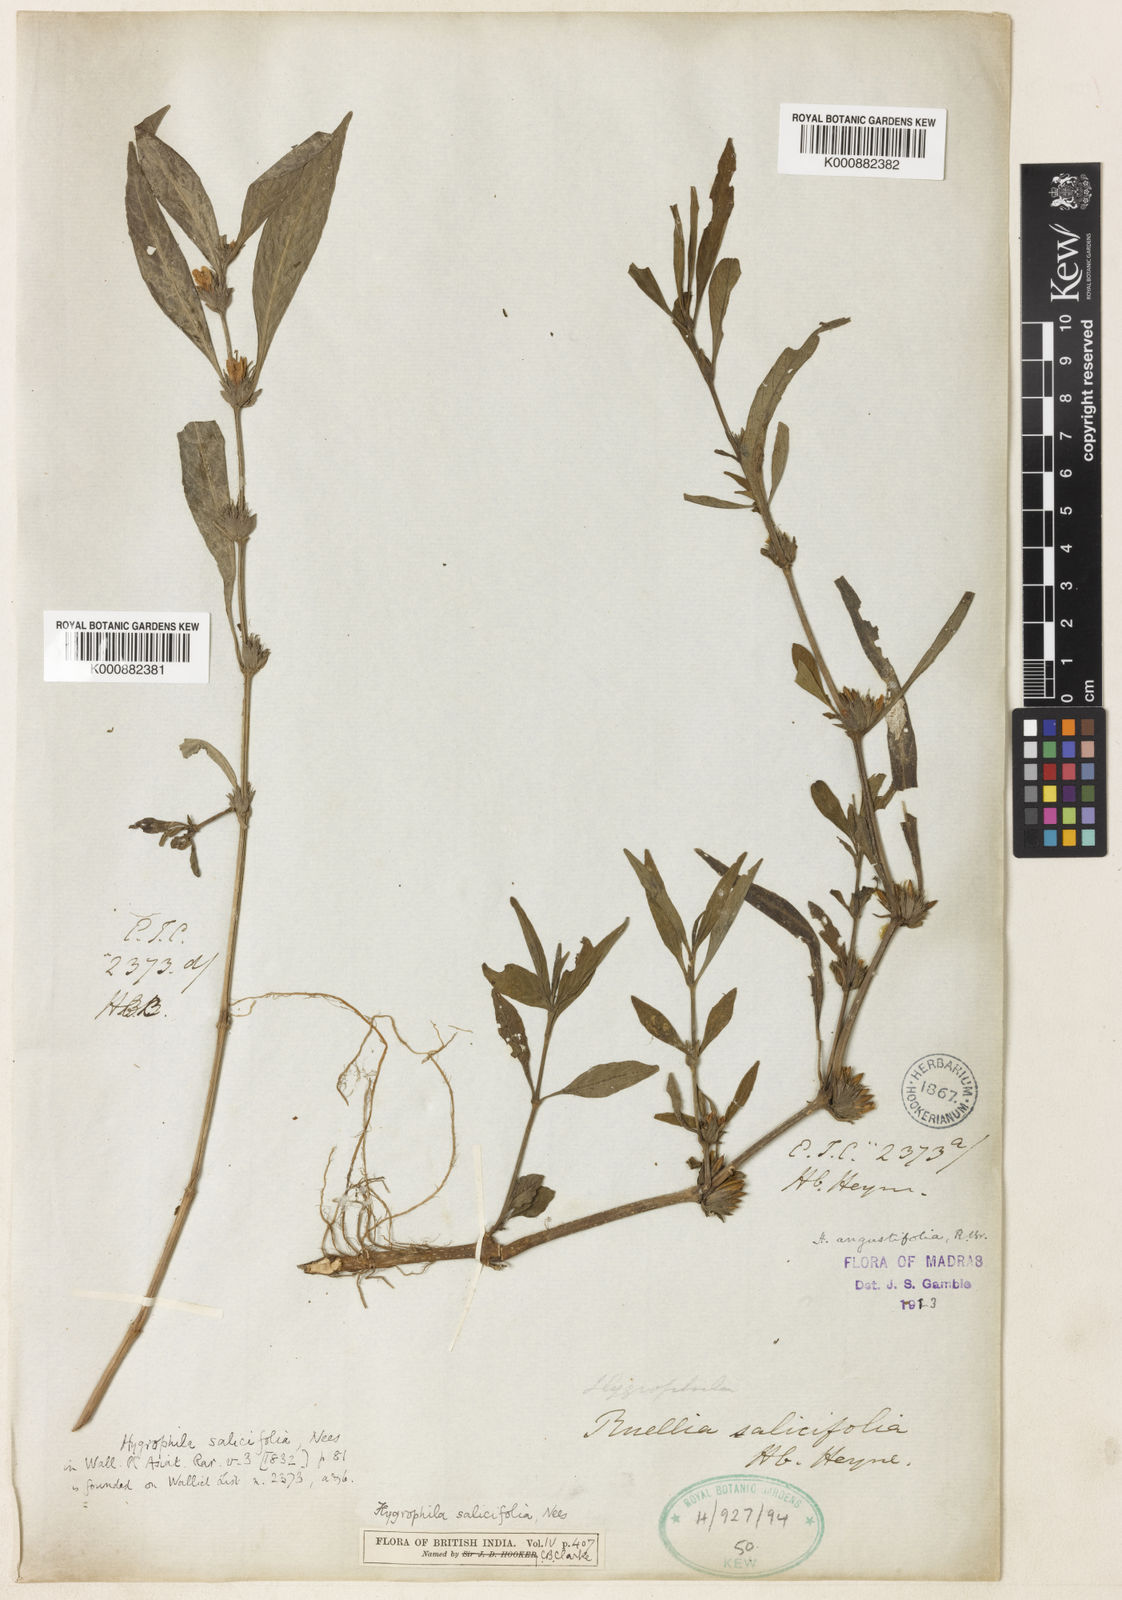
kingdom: Plantae
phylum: Tracheophyta
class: Magnoliopsida
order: Lamiales
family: Acanthaceae
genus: Hygrophila
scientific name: Hygrophila ringens
